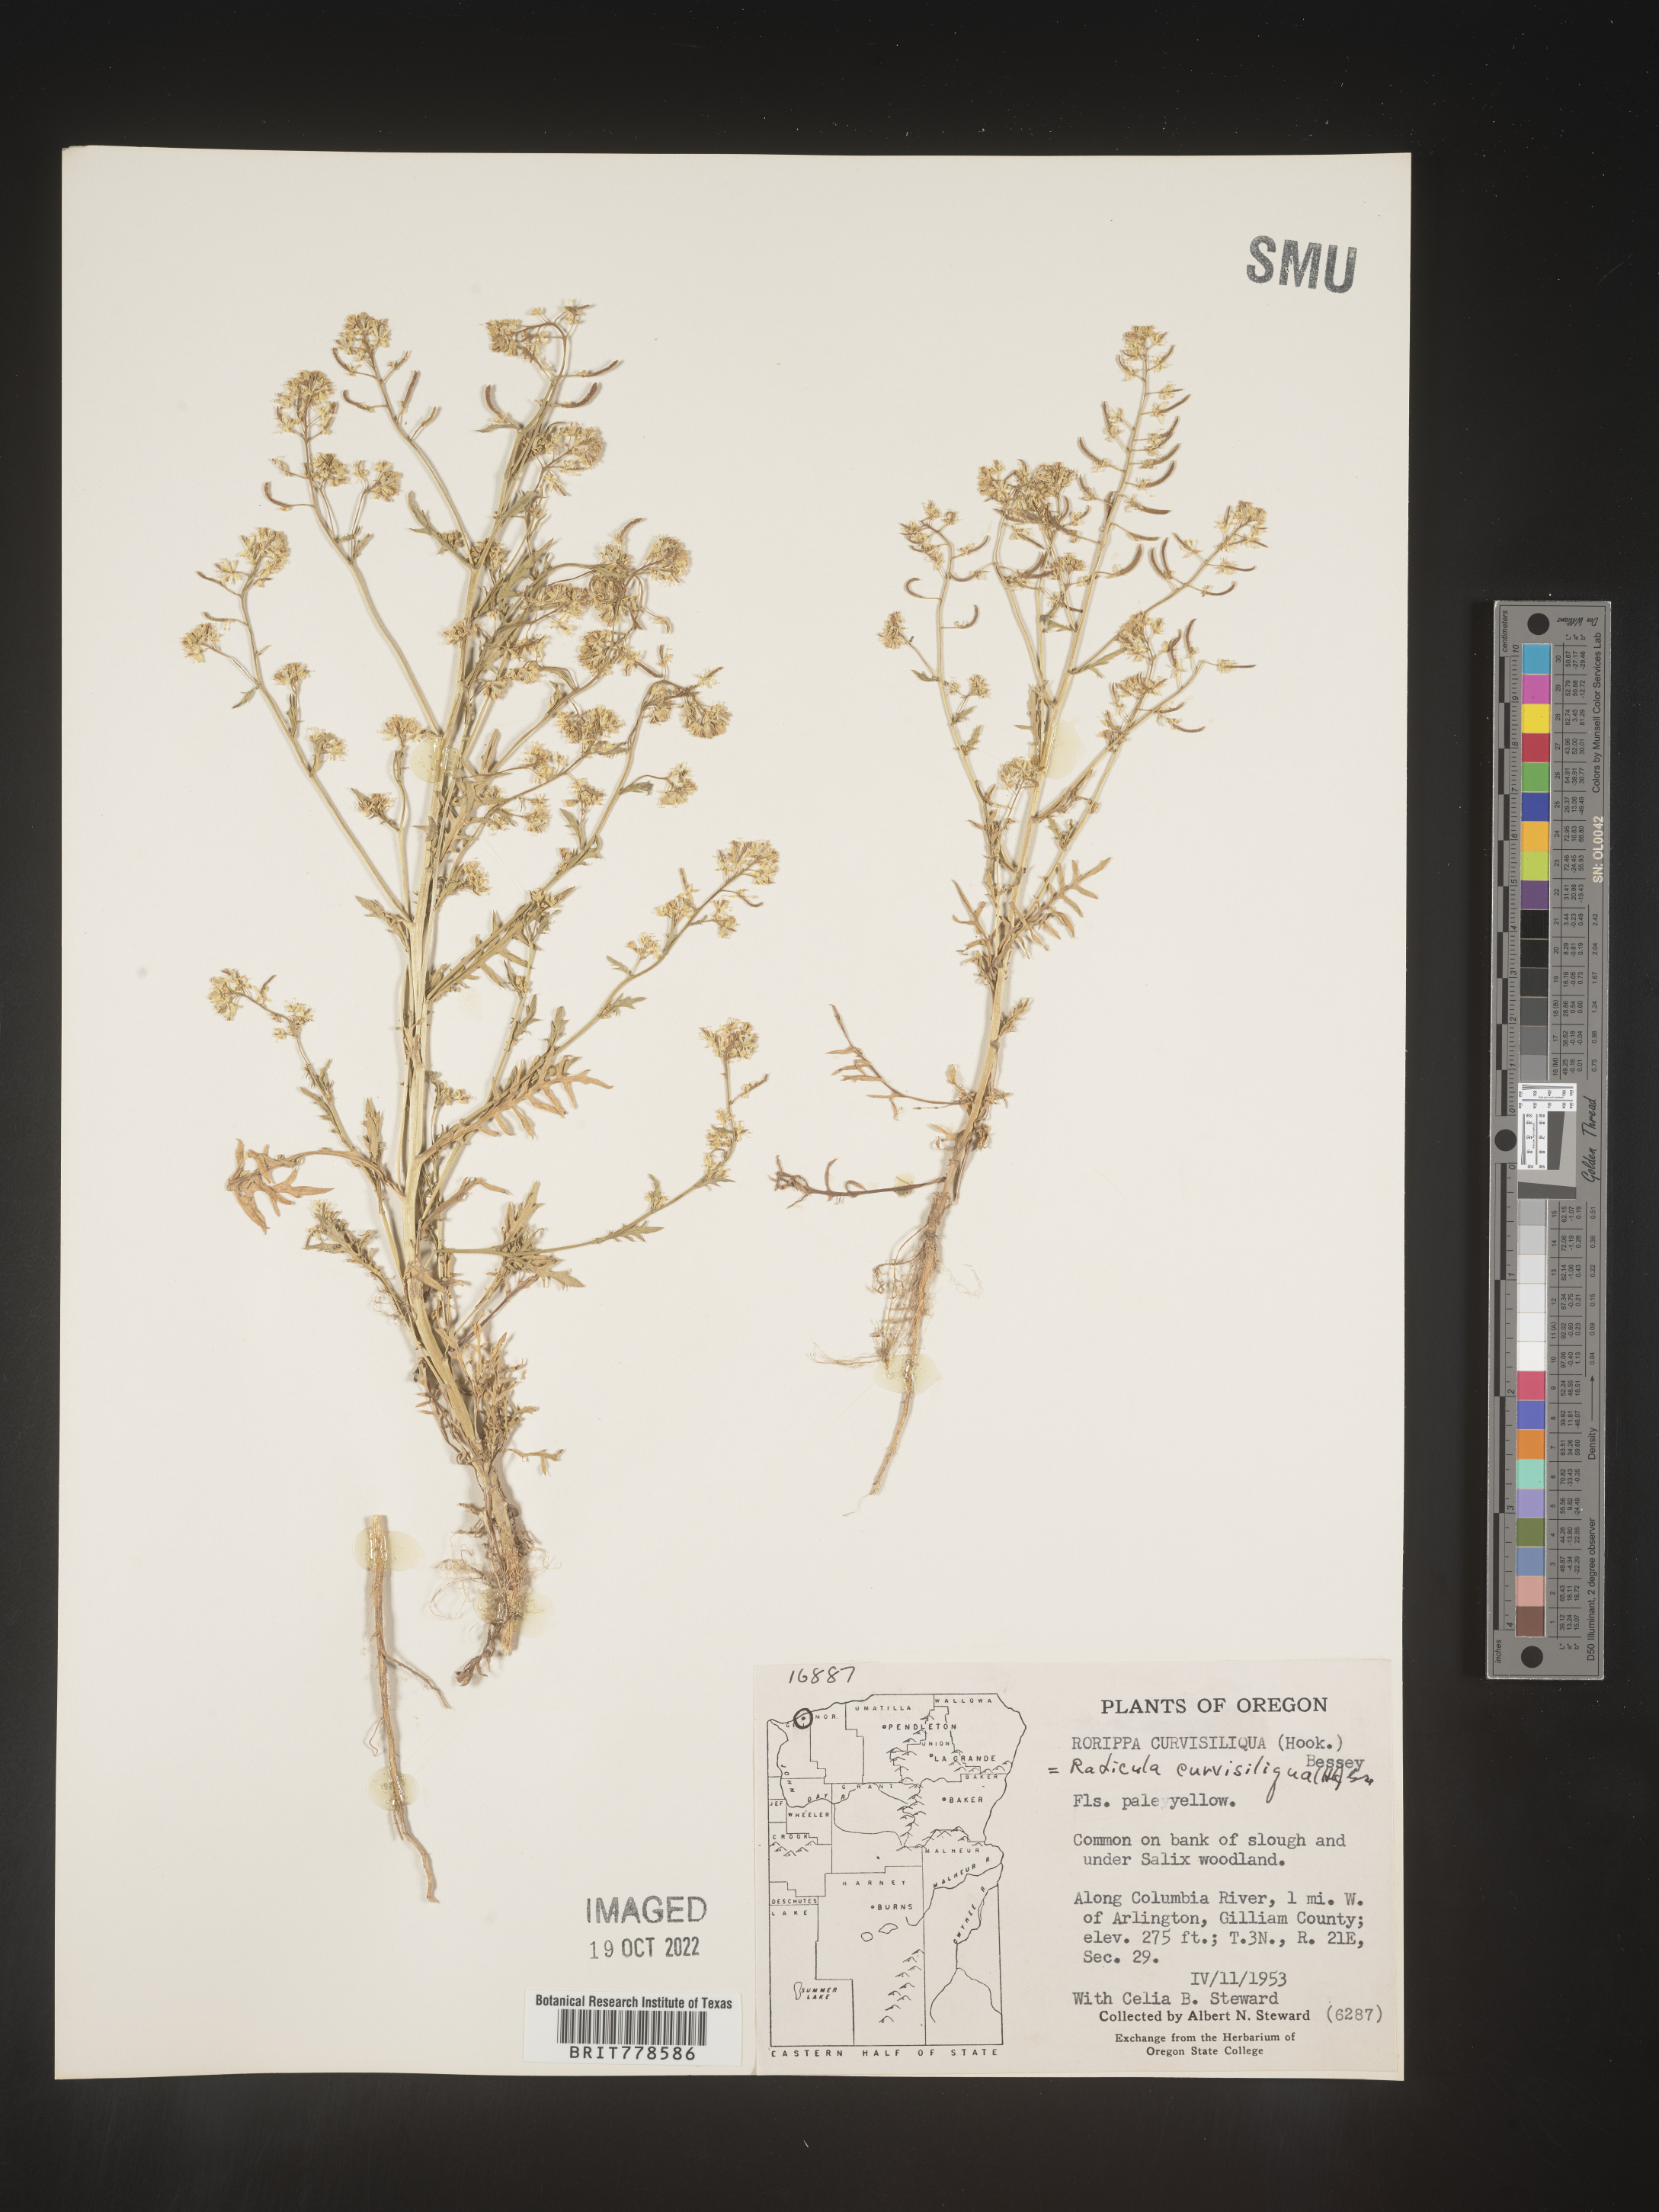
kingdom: Plantae
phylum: Tracheophyta
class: Magnoliopsida
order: Brassicales
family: Brassicaceae
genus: Rorippa
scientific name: Rorippa
